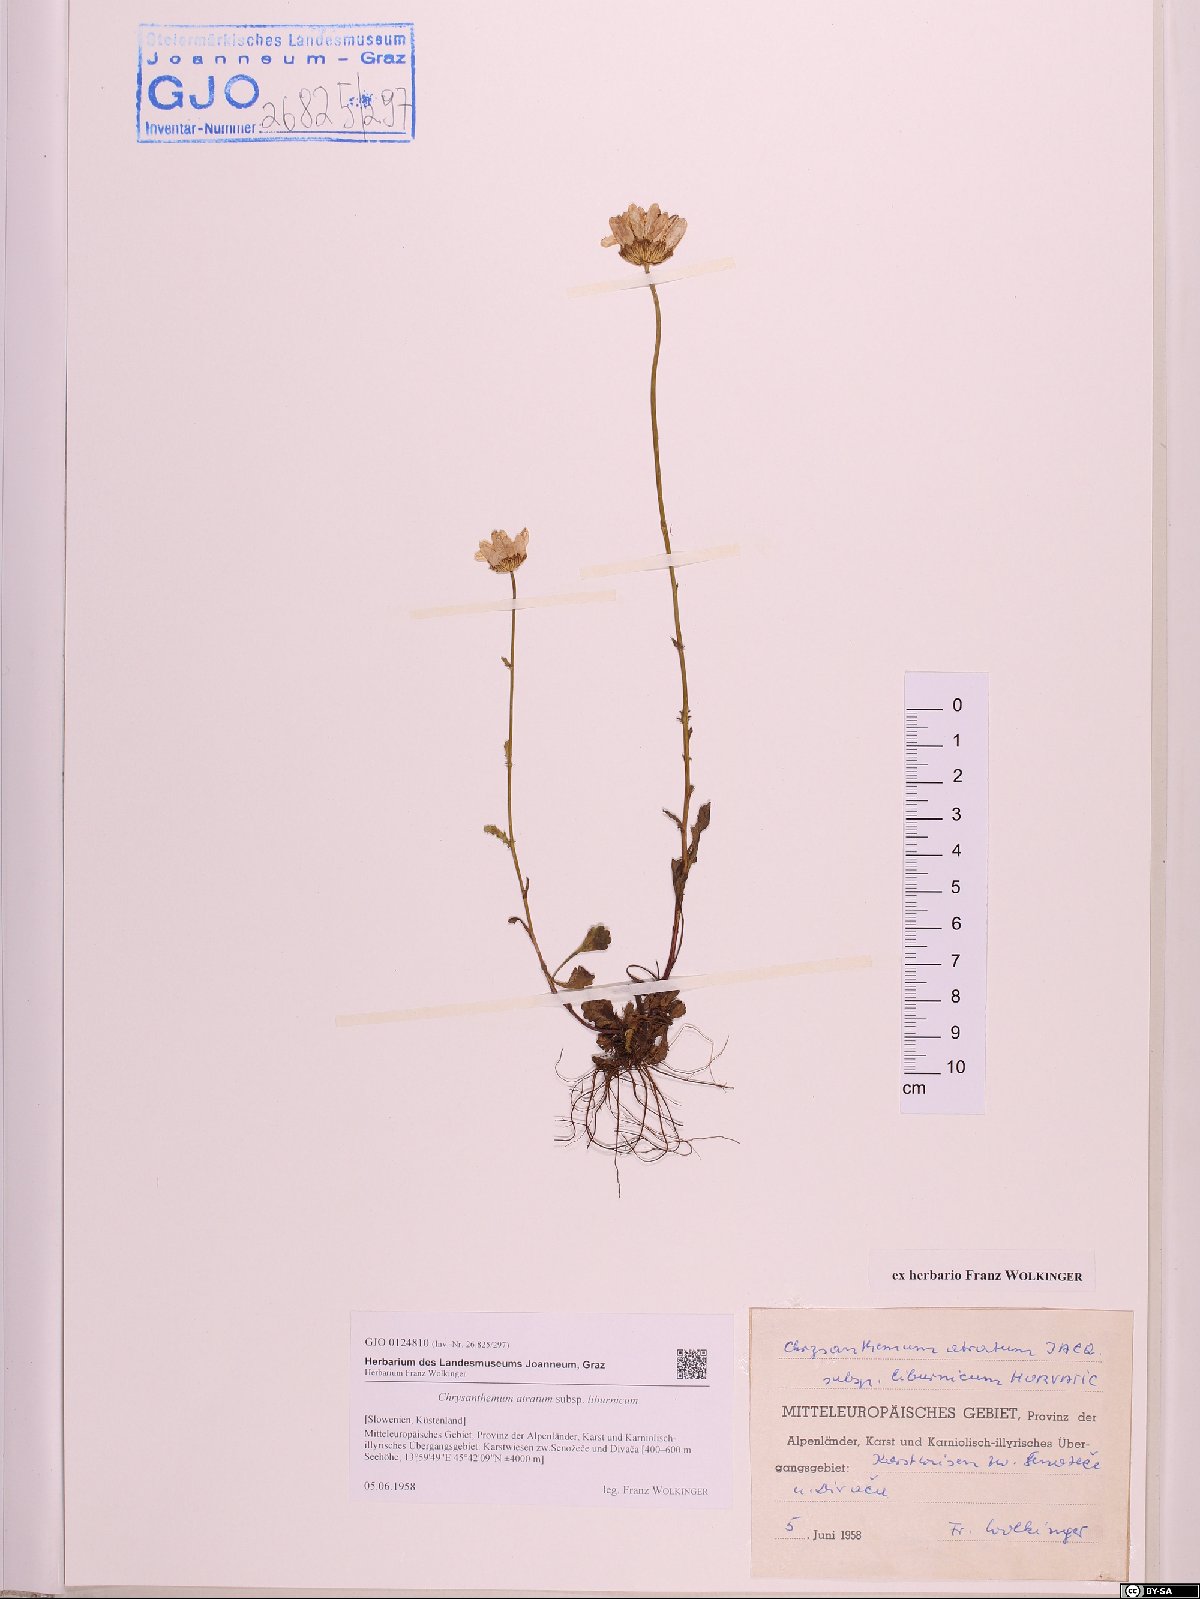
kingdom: Plantae
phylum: Tracheophyta
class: Magnoliopsida
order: Asterales
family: Asteraceae
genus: Leucanthemum
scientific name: Leucanthemum adustum
